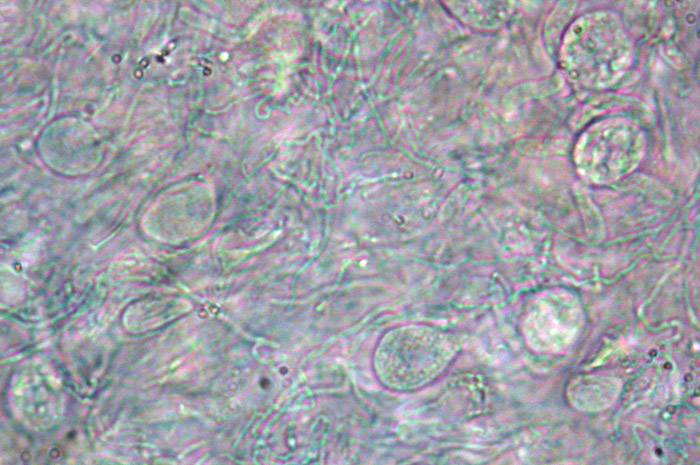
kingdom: Fungi
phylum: Basidiomycota
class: Tremellomycetes
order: Tremellales
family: Exidiaceae
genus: Exidiopsis
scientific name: Exidiopsis effusa
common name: smuk bævrehinde
